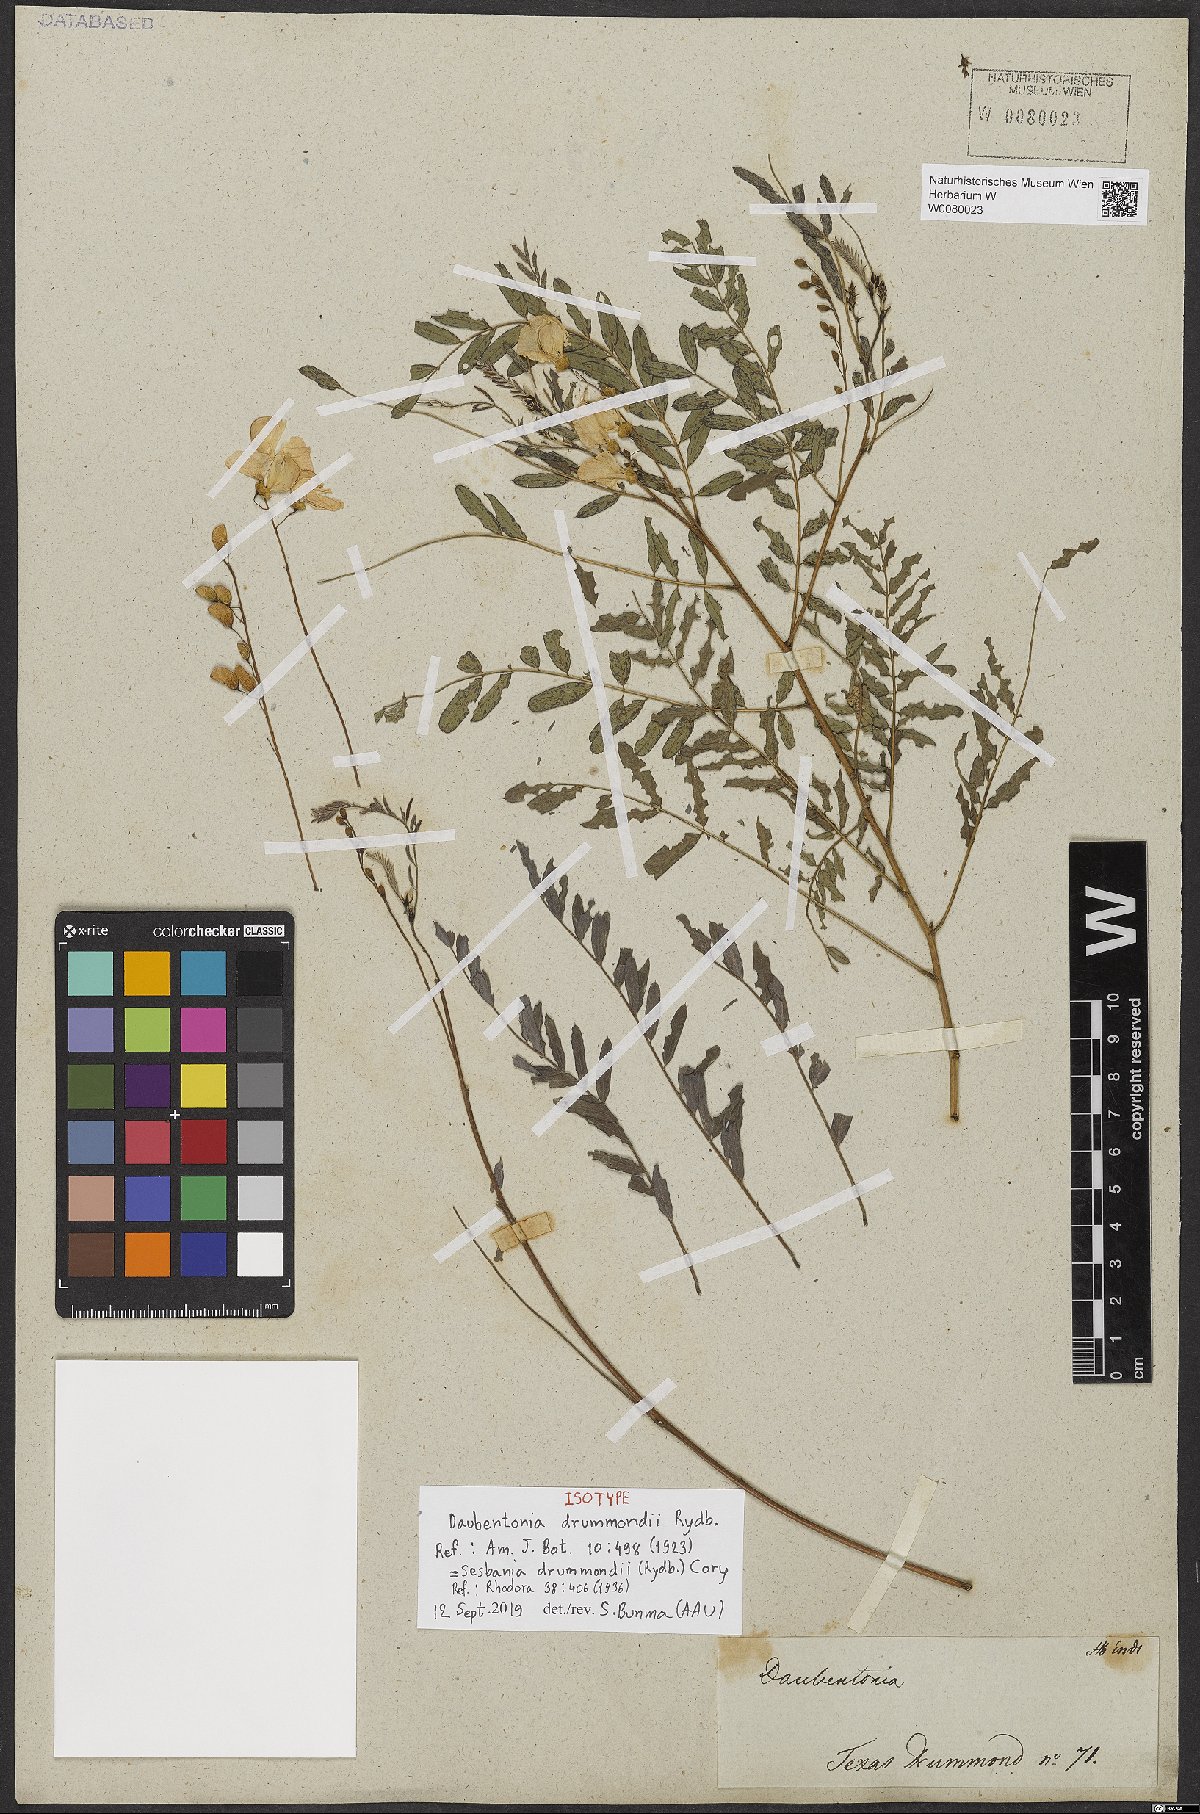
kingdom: Plantae
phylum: Tracheophyta
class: Magnoliopsida
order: Fabales
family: Fabaceae
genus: Sesbania
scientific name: Sesbania drummondii
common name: Poison-bean
